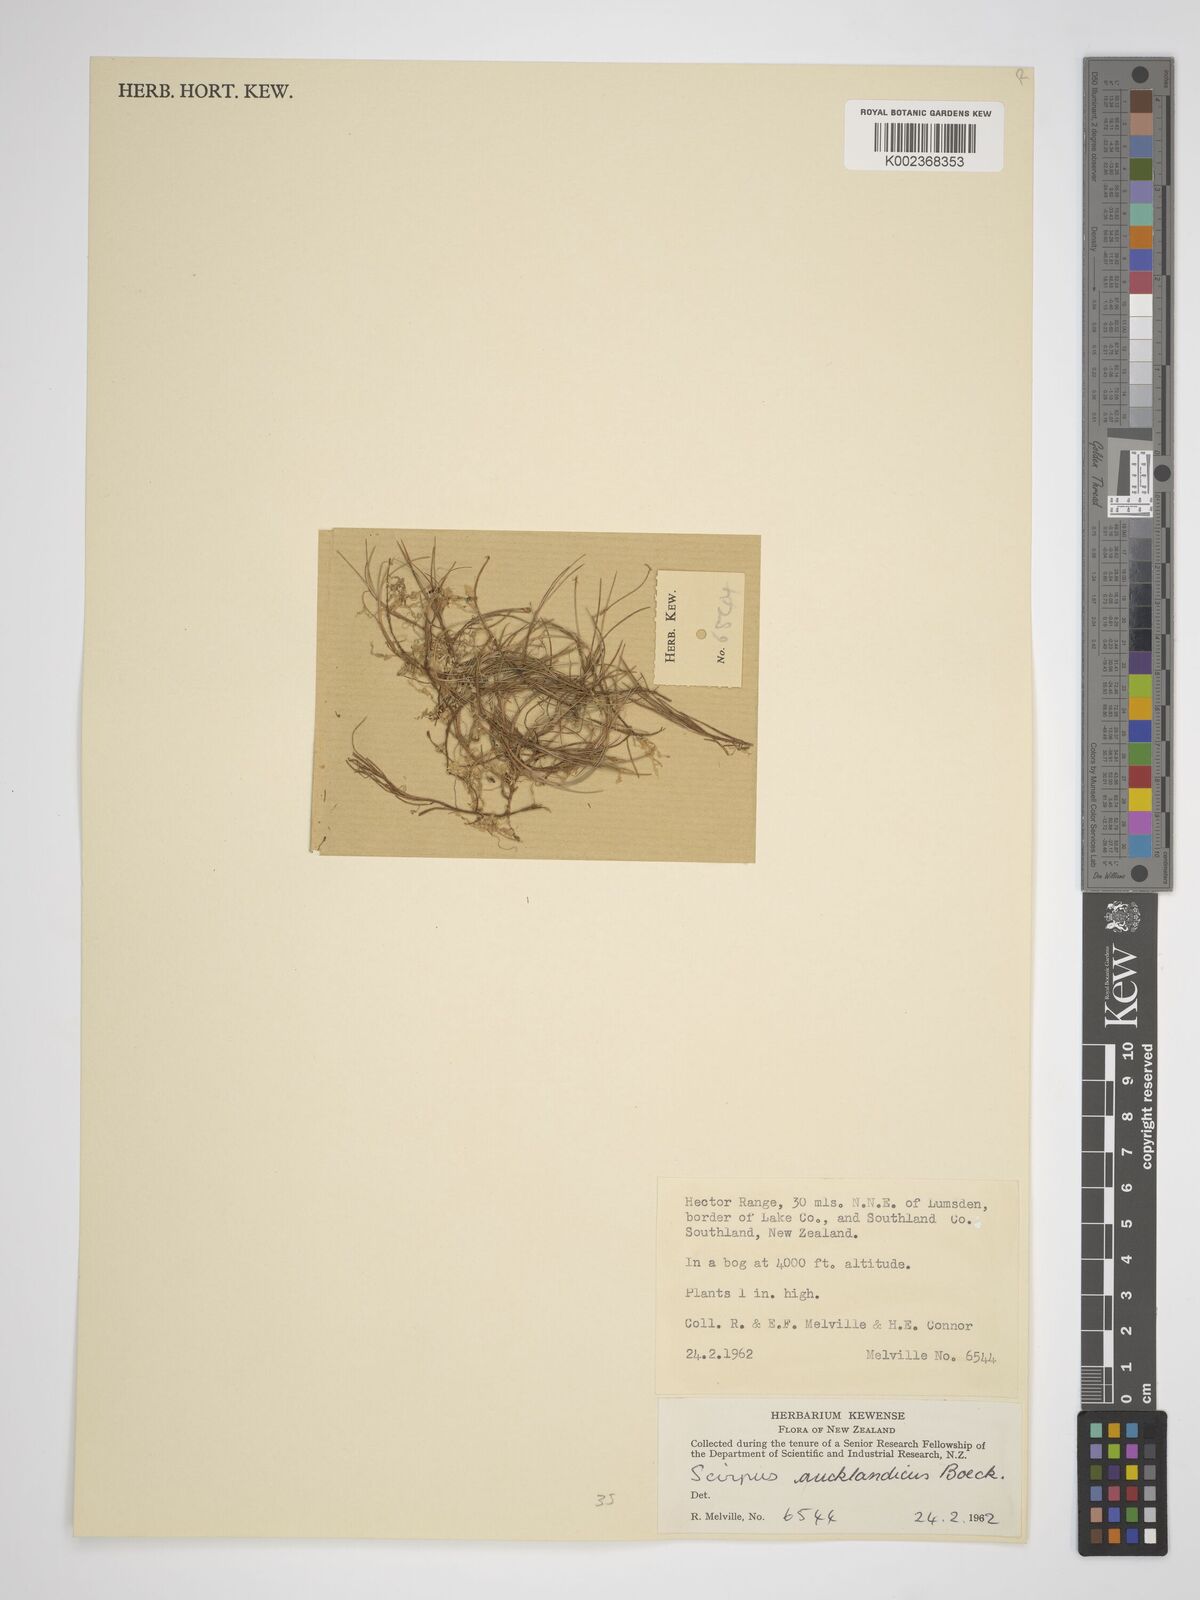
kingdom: Plantae
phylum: Tracheophyta
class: Liliopsida
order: Poales
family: Cyperaceae
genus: Isolepis
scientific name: Isolepis aucklandica
